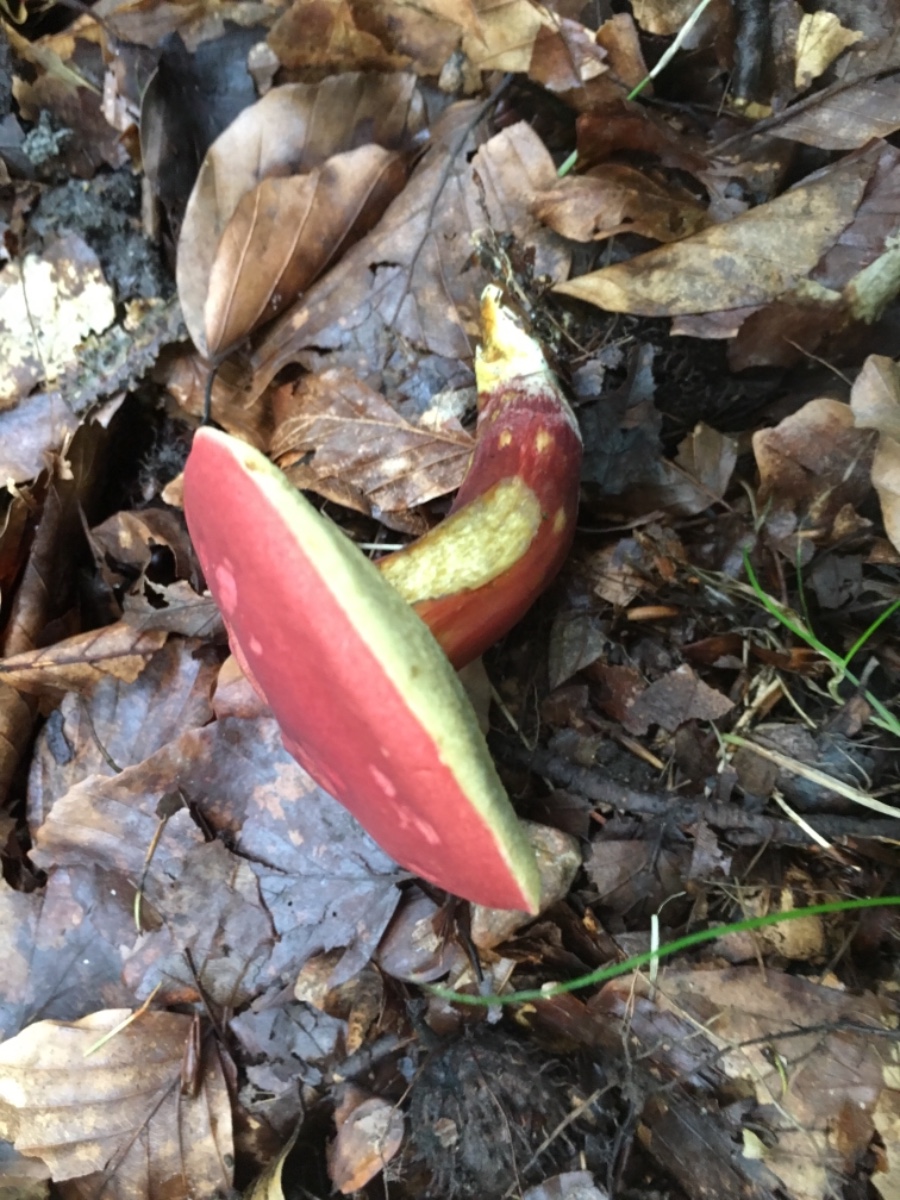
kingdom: Fungi
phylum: Basidiomycota
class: Agaricomycetes
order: Boletales
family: Boletaceae
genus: Hortiboletus
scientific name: Hortiboletus rubellus
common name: blodrød rørhat
